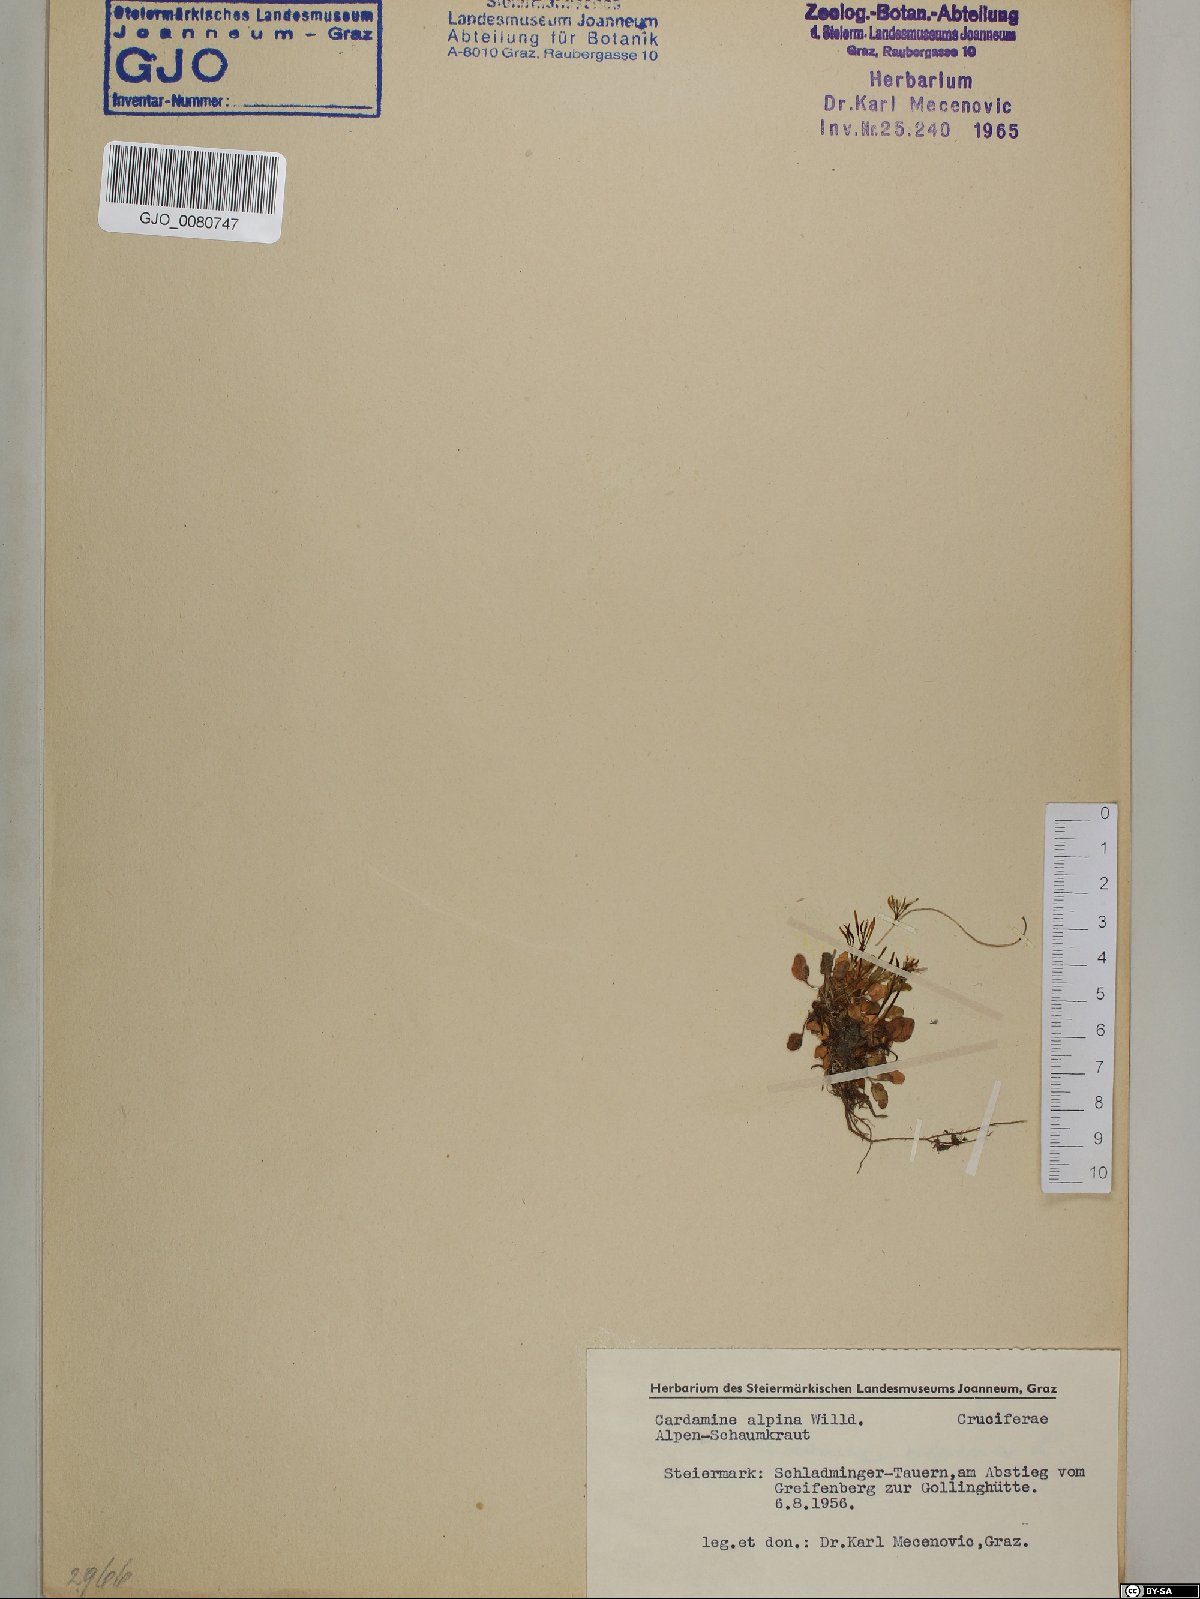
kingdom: Plantae
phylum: Tracheophyta
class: Magnoliopsida
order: Brassicales
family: Brassicaceae
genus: Cardamine
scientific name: Cardamine bellidifolia
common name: Alpine bittercress
